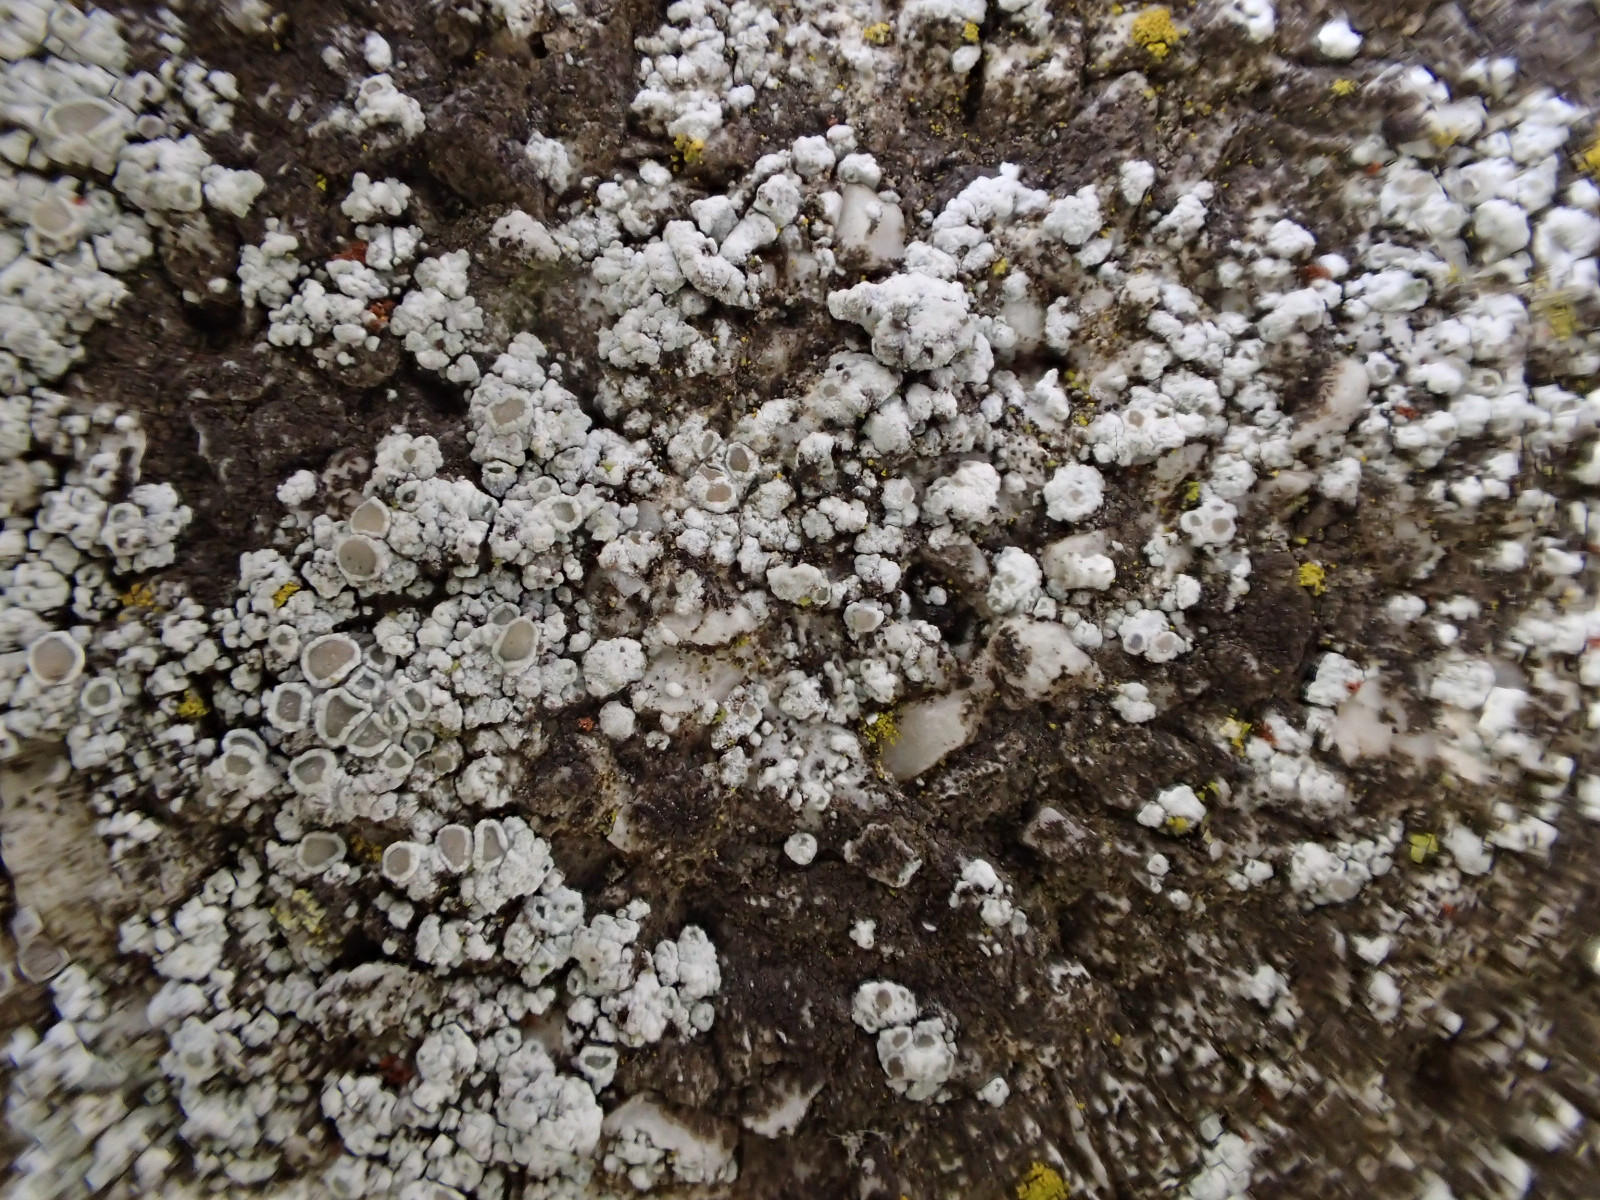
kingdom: Fungi
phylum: Ascomycota
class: Lecanoromycetes
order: Lecanorales
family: Lecanoraceae
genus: Polyozosia
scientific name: Polyozosia albescens
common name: cement-kantskivelav
